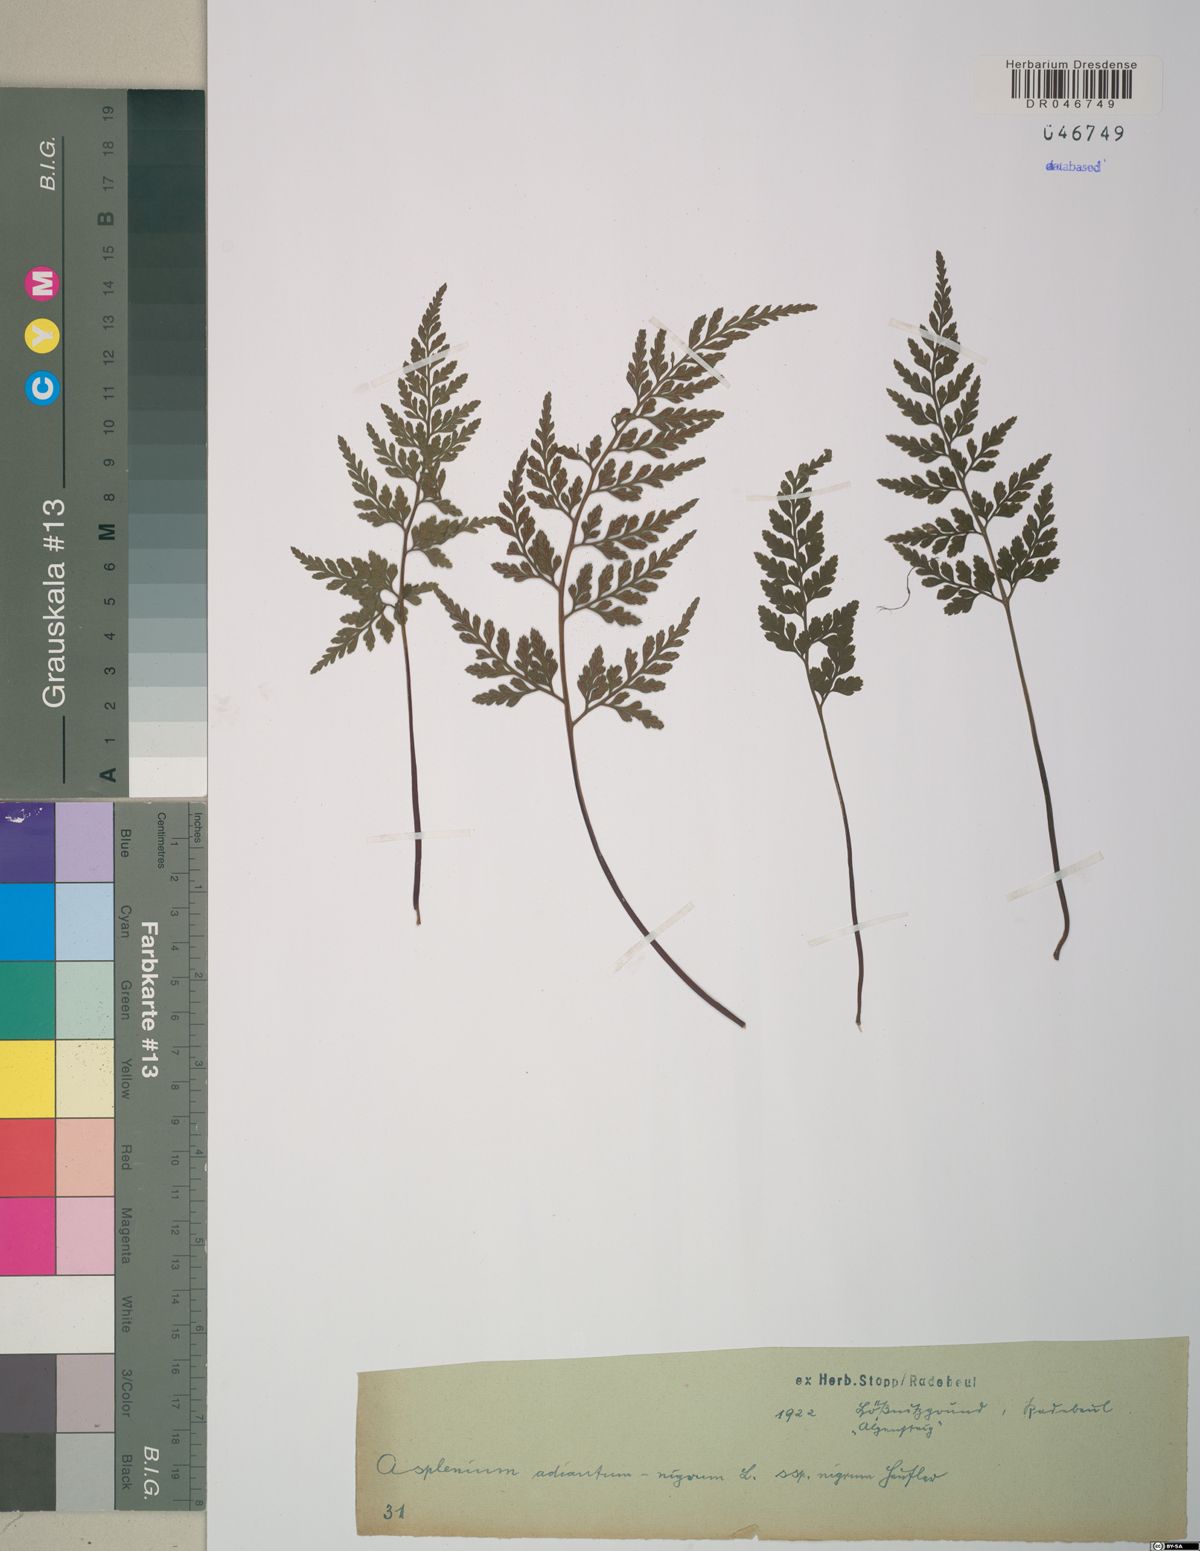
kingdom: Plantae
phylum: Tracheophyta
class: Polypodiopsida
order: Polypodiales
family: Aspleniaceae
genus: Asplenium
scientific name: Asplenium adiantum-nigrum
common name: Black spleenwort
